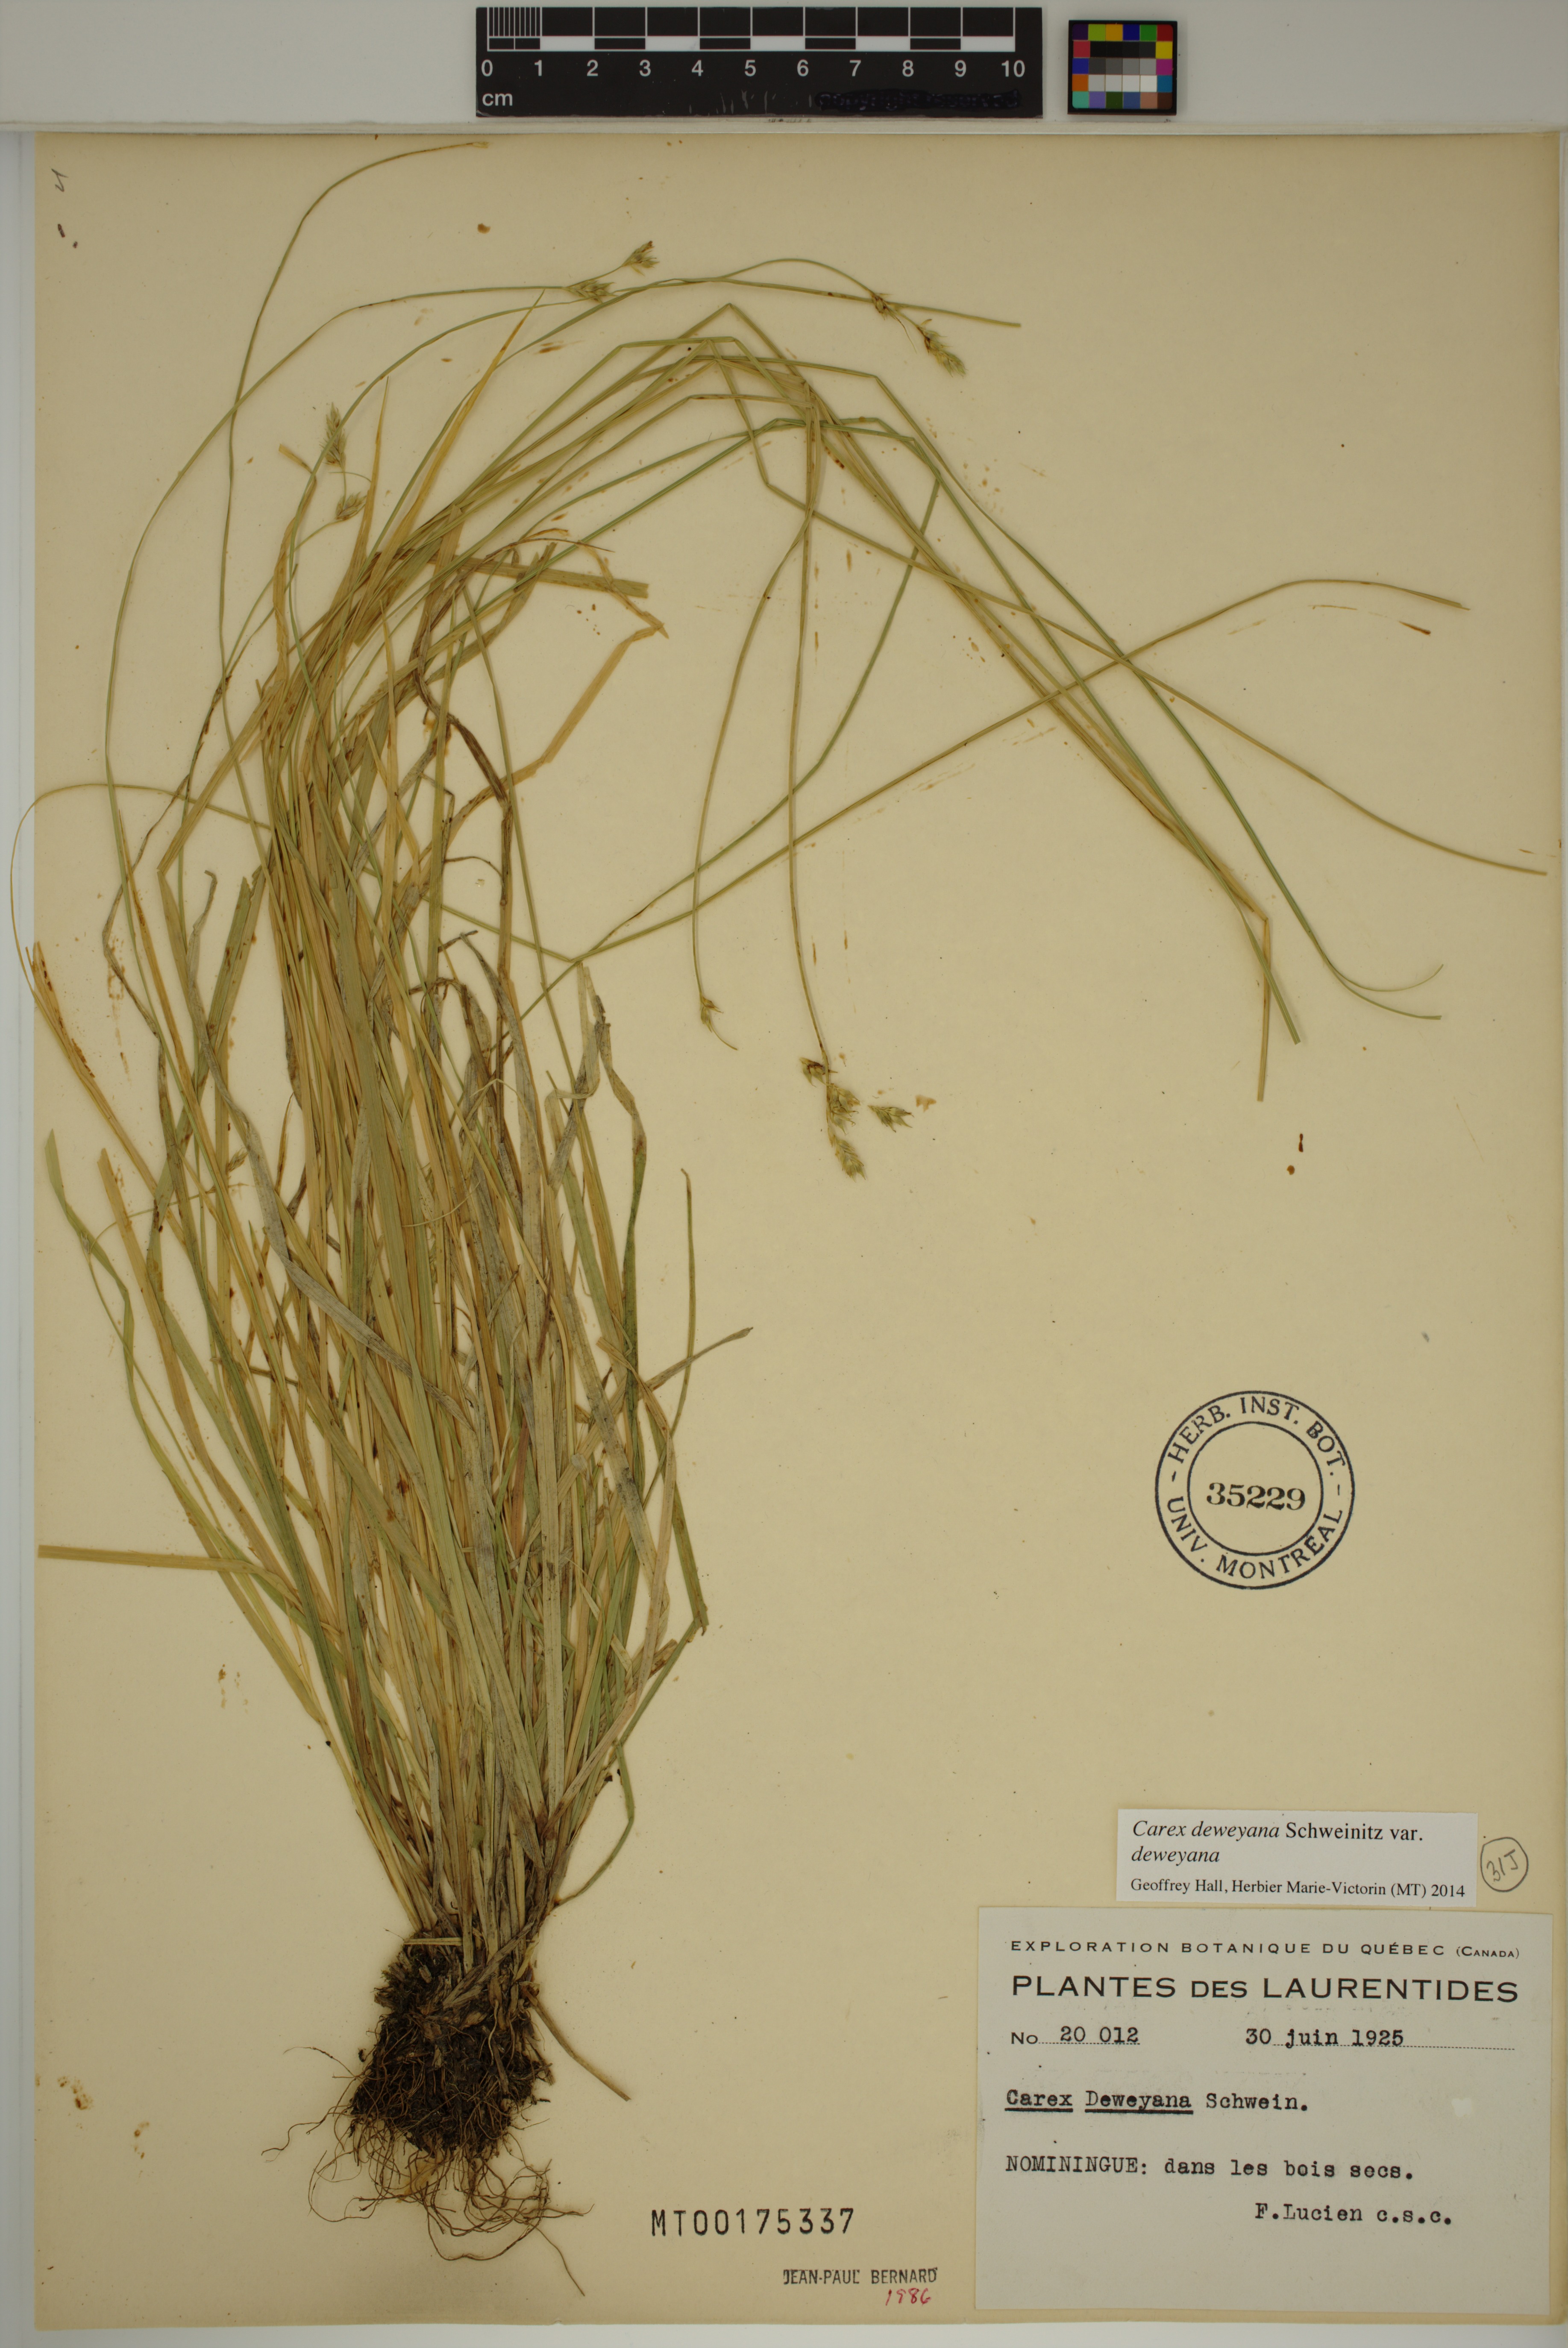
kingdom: Plantae
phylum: Tracheophyta
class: Liliopsida
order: Poales
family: Cyperaceae
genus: Carex
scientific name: Carex deweyana
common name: Dewey's sedge
